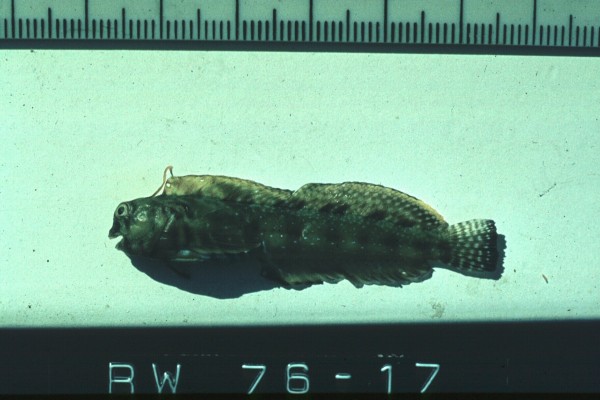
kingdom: Animalia
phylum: Chordata
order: Perciformes
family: Blenniidae
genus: Antennablennius
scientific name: Antennablennius bifilum
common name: Horned rockskipper
